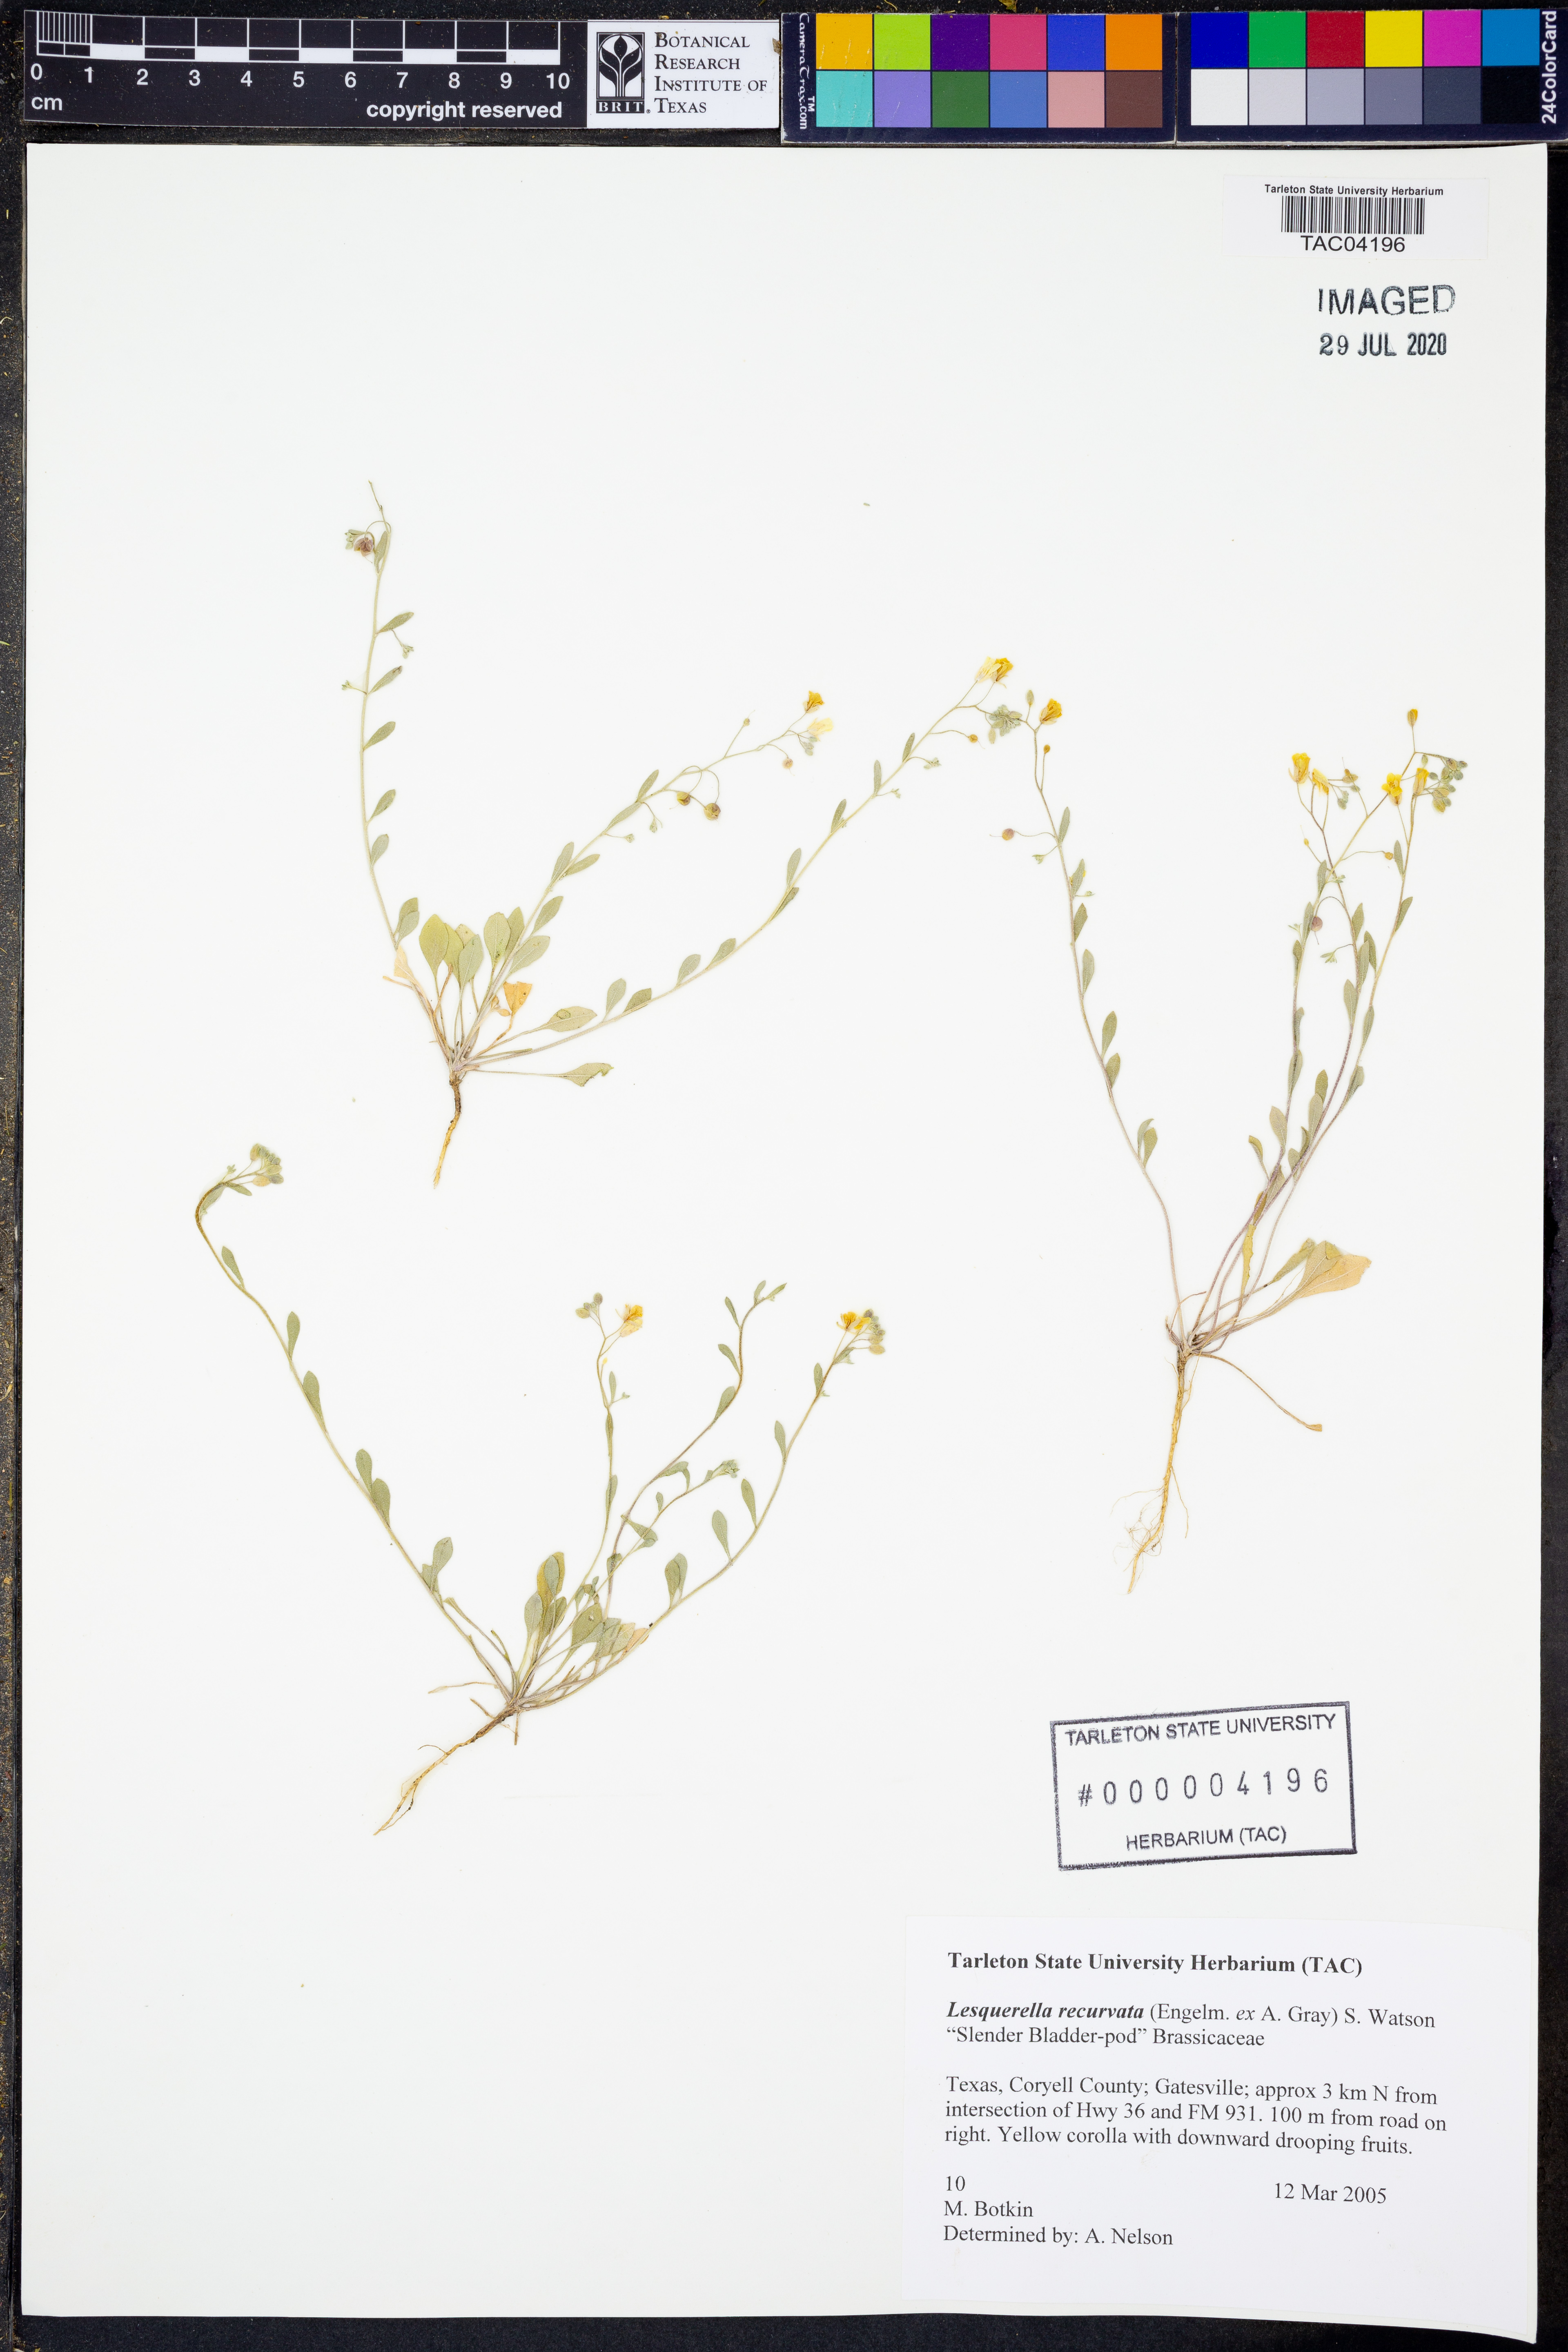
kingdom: Plantae
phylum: Tracheophyta
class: Magnoliopsida
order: Brassicales
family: Brassicaceae
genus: Physaria
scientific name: Physaria recurvata
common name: Gaslight bladderpod
